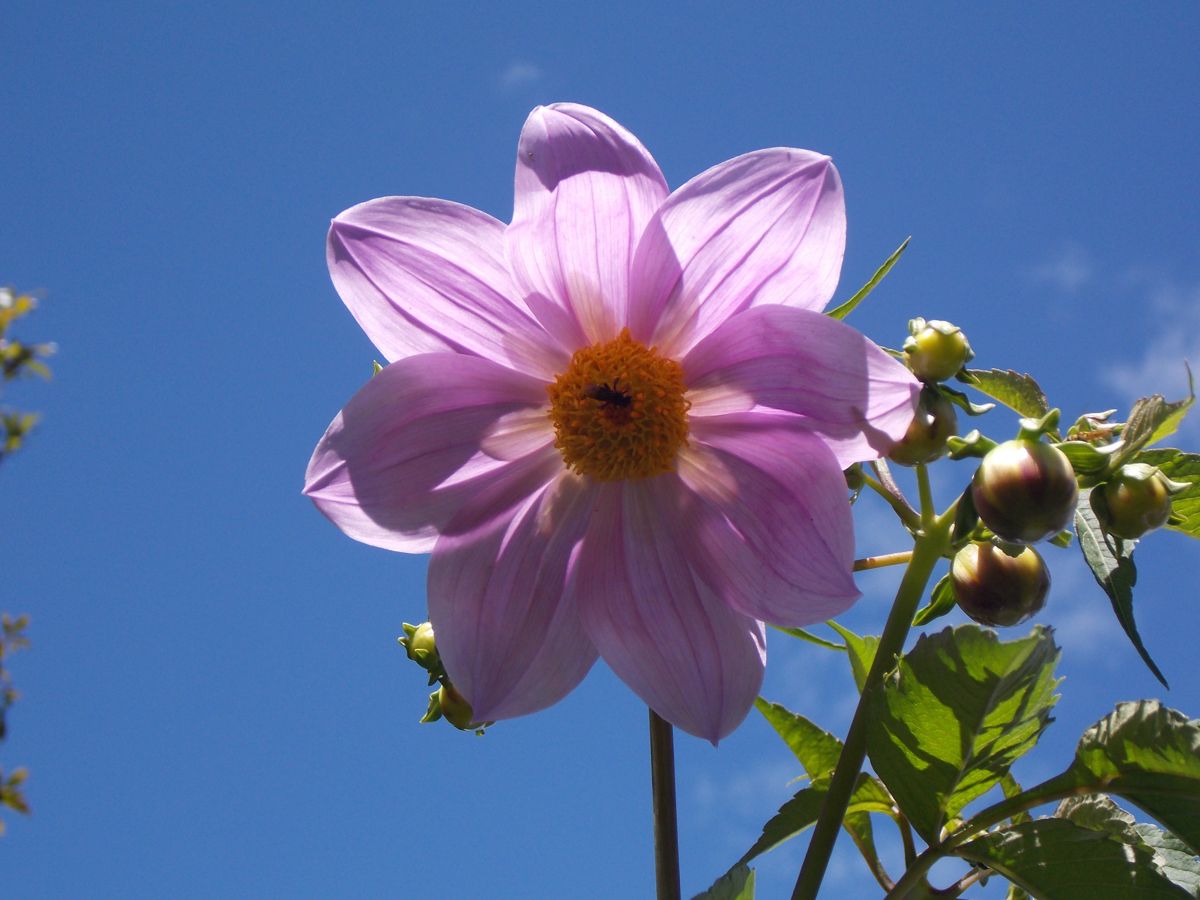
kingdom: Plantae
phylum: Tracheophyta
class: Magnoliopsida
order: Asterales
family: Asteraceae
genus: Dahlia
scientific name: Dahlia imperialis
